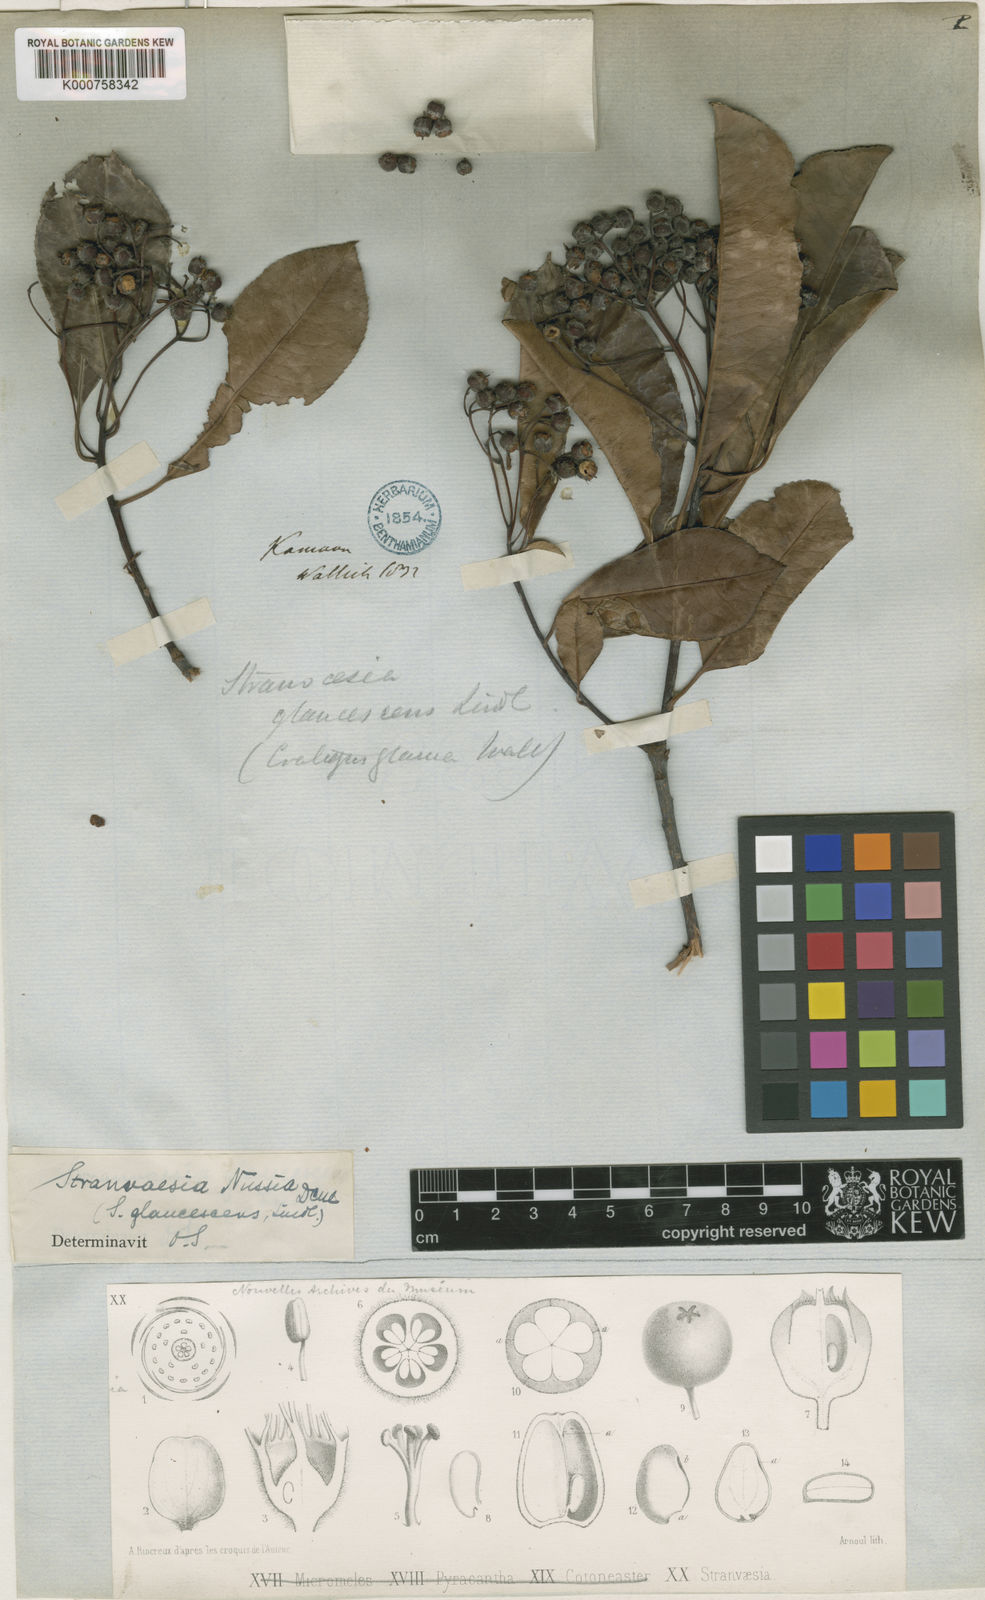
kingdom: Plantae
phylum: Tracheophyta
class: Magnoliopsida
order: Rosales
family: Rosaceae
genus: Stranvaesia
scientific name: Stranvaesia nussia
